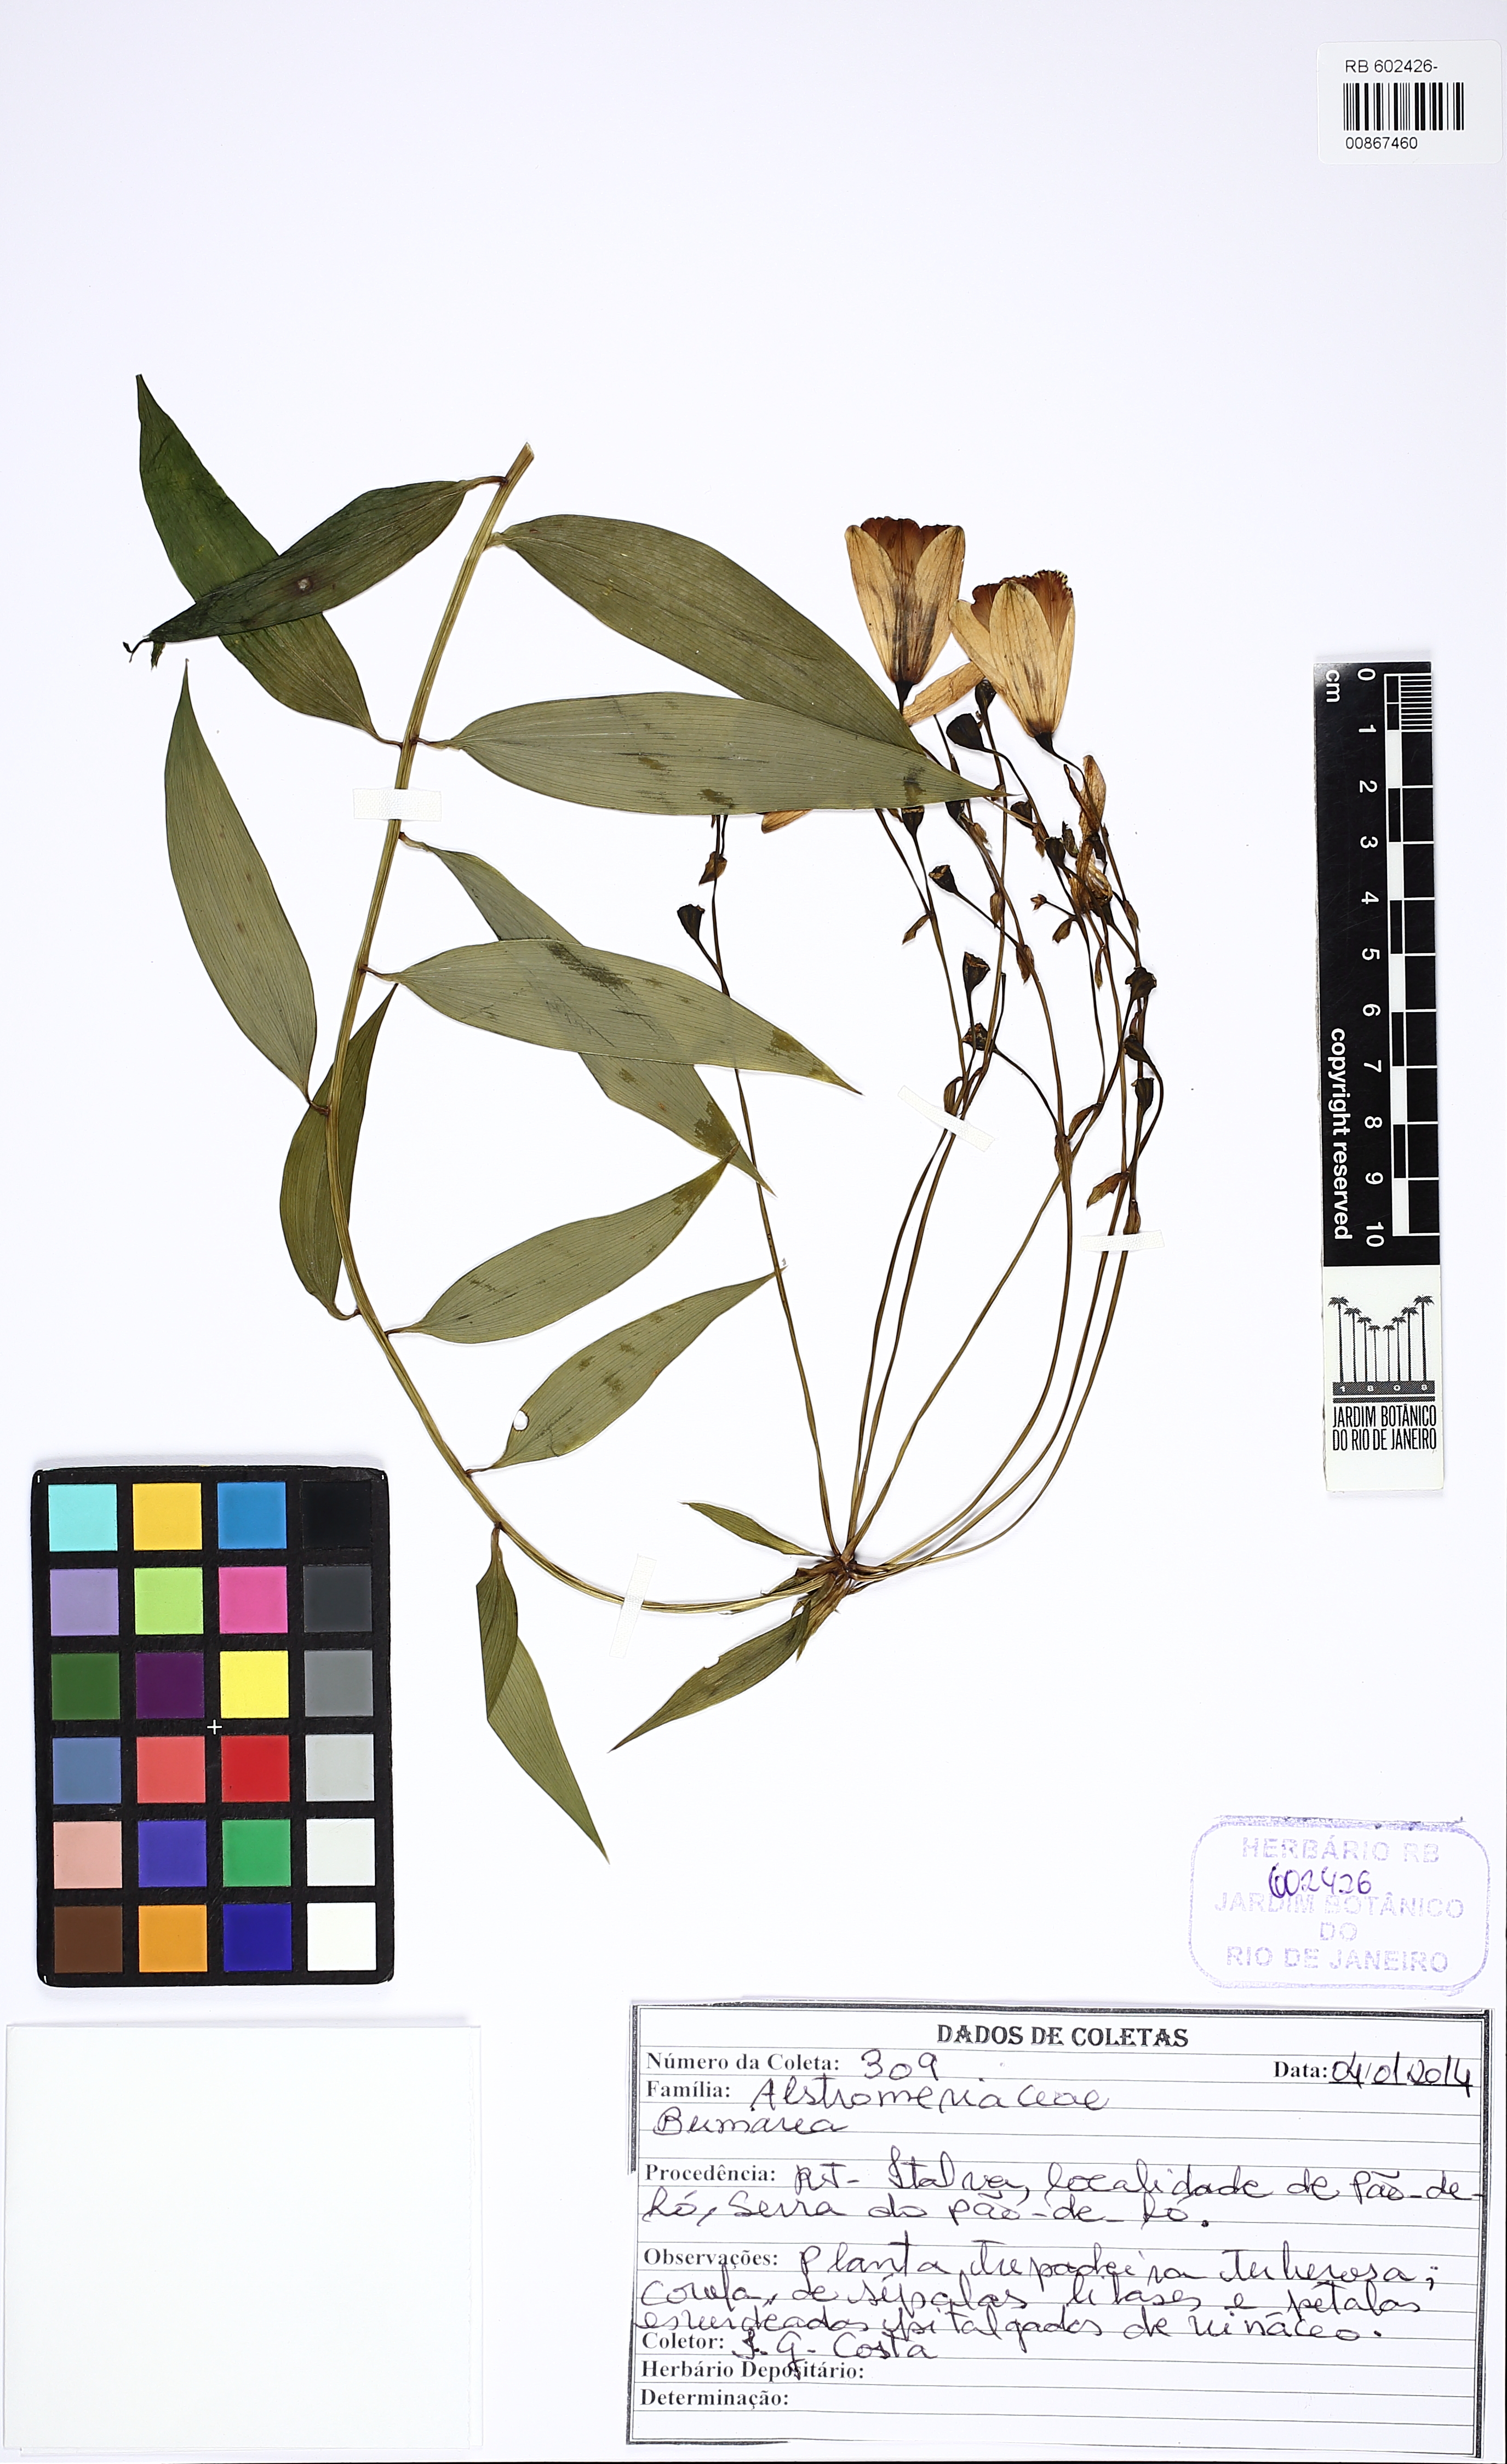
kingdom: Plantae
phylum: Tracheophyta
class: Liliopsida
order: Liliales
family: Alstroemeriaceae
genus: Bomarea
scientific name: Bomarea
